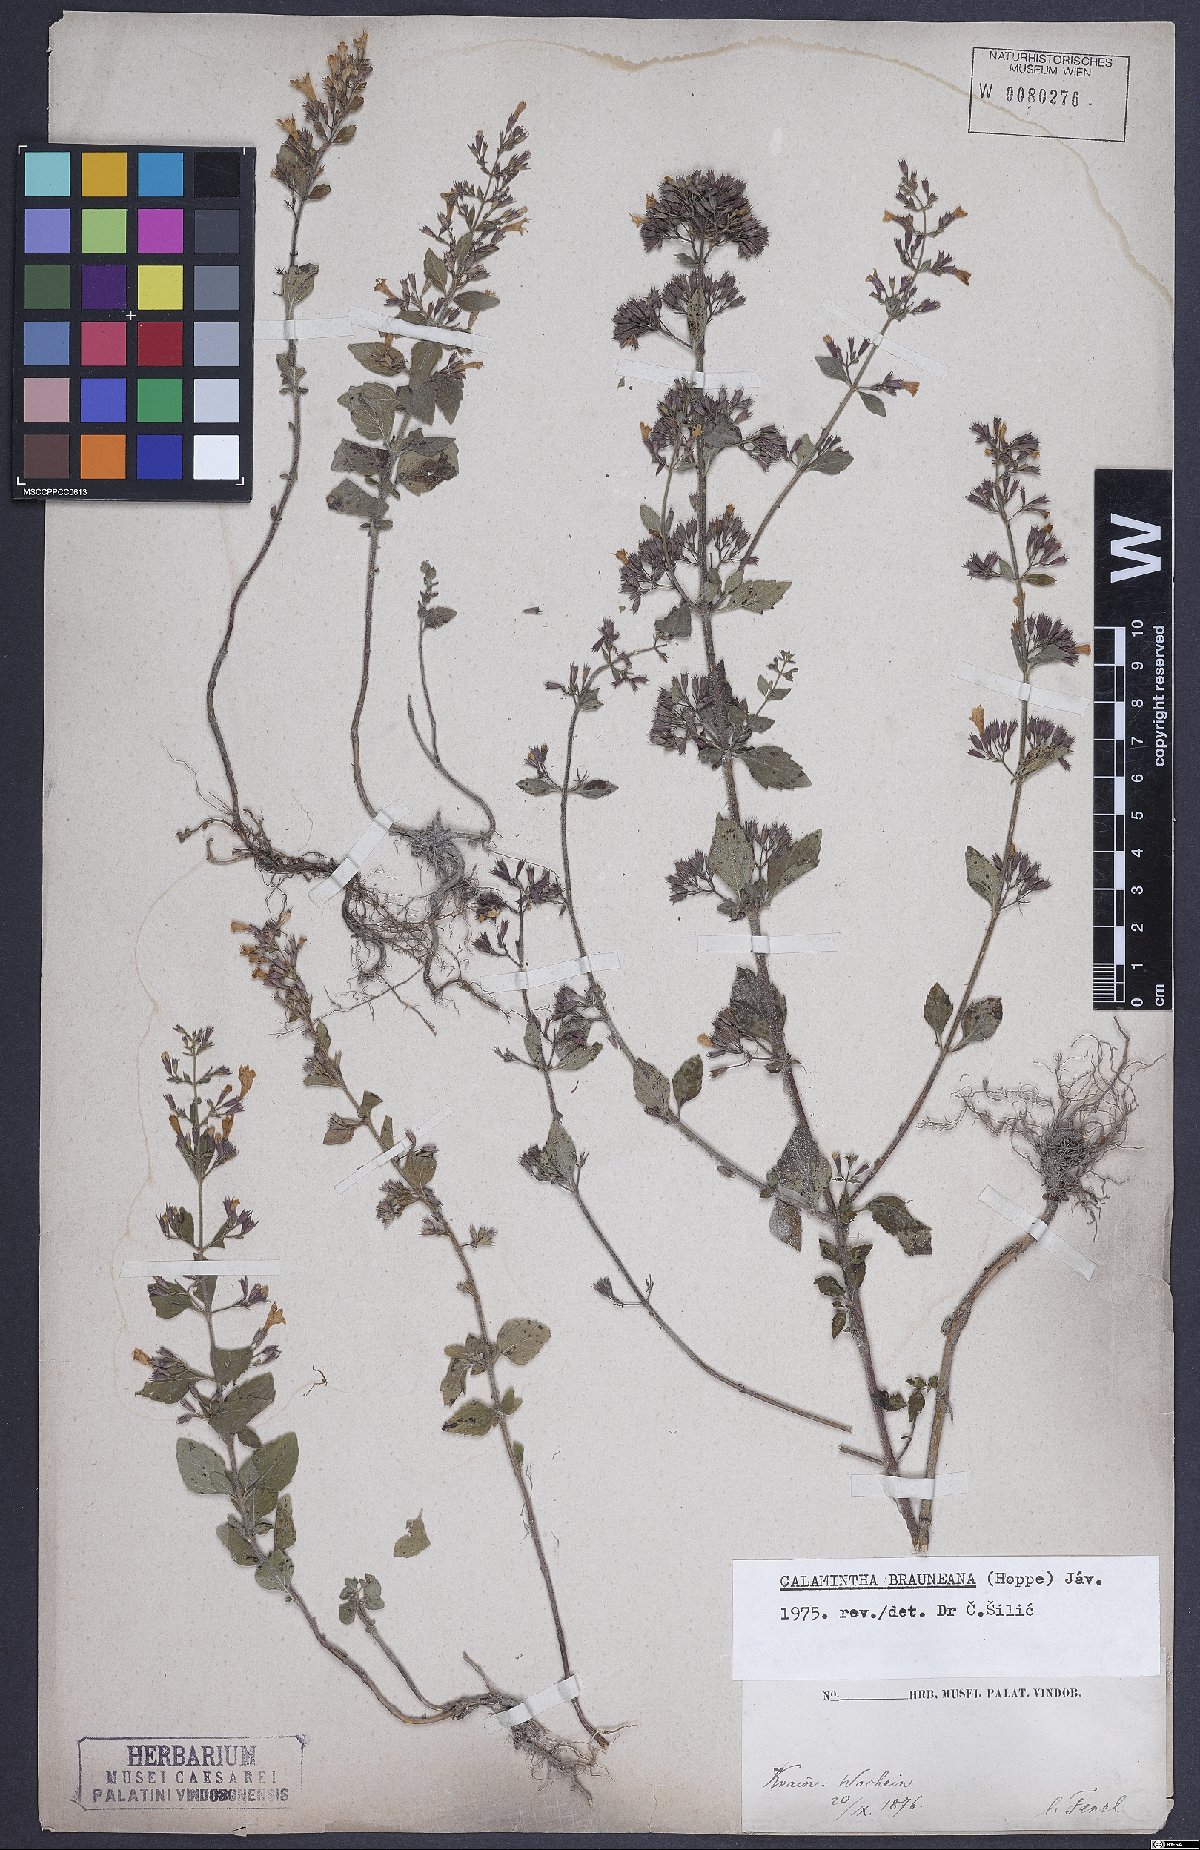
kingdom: Plantae
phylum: Tracheophyta
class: Magnoliopsida
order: Lamiales
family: Lamiaceae
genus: Clinopodium
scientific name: Clinopodium nepeta
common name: Lesser calamint
